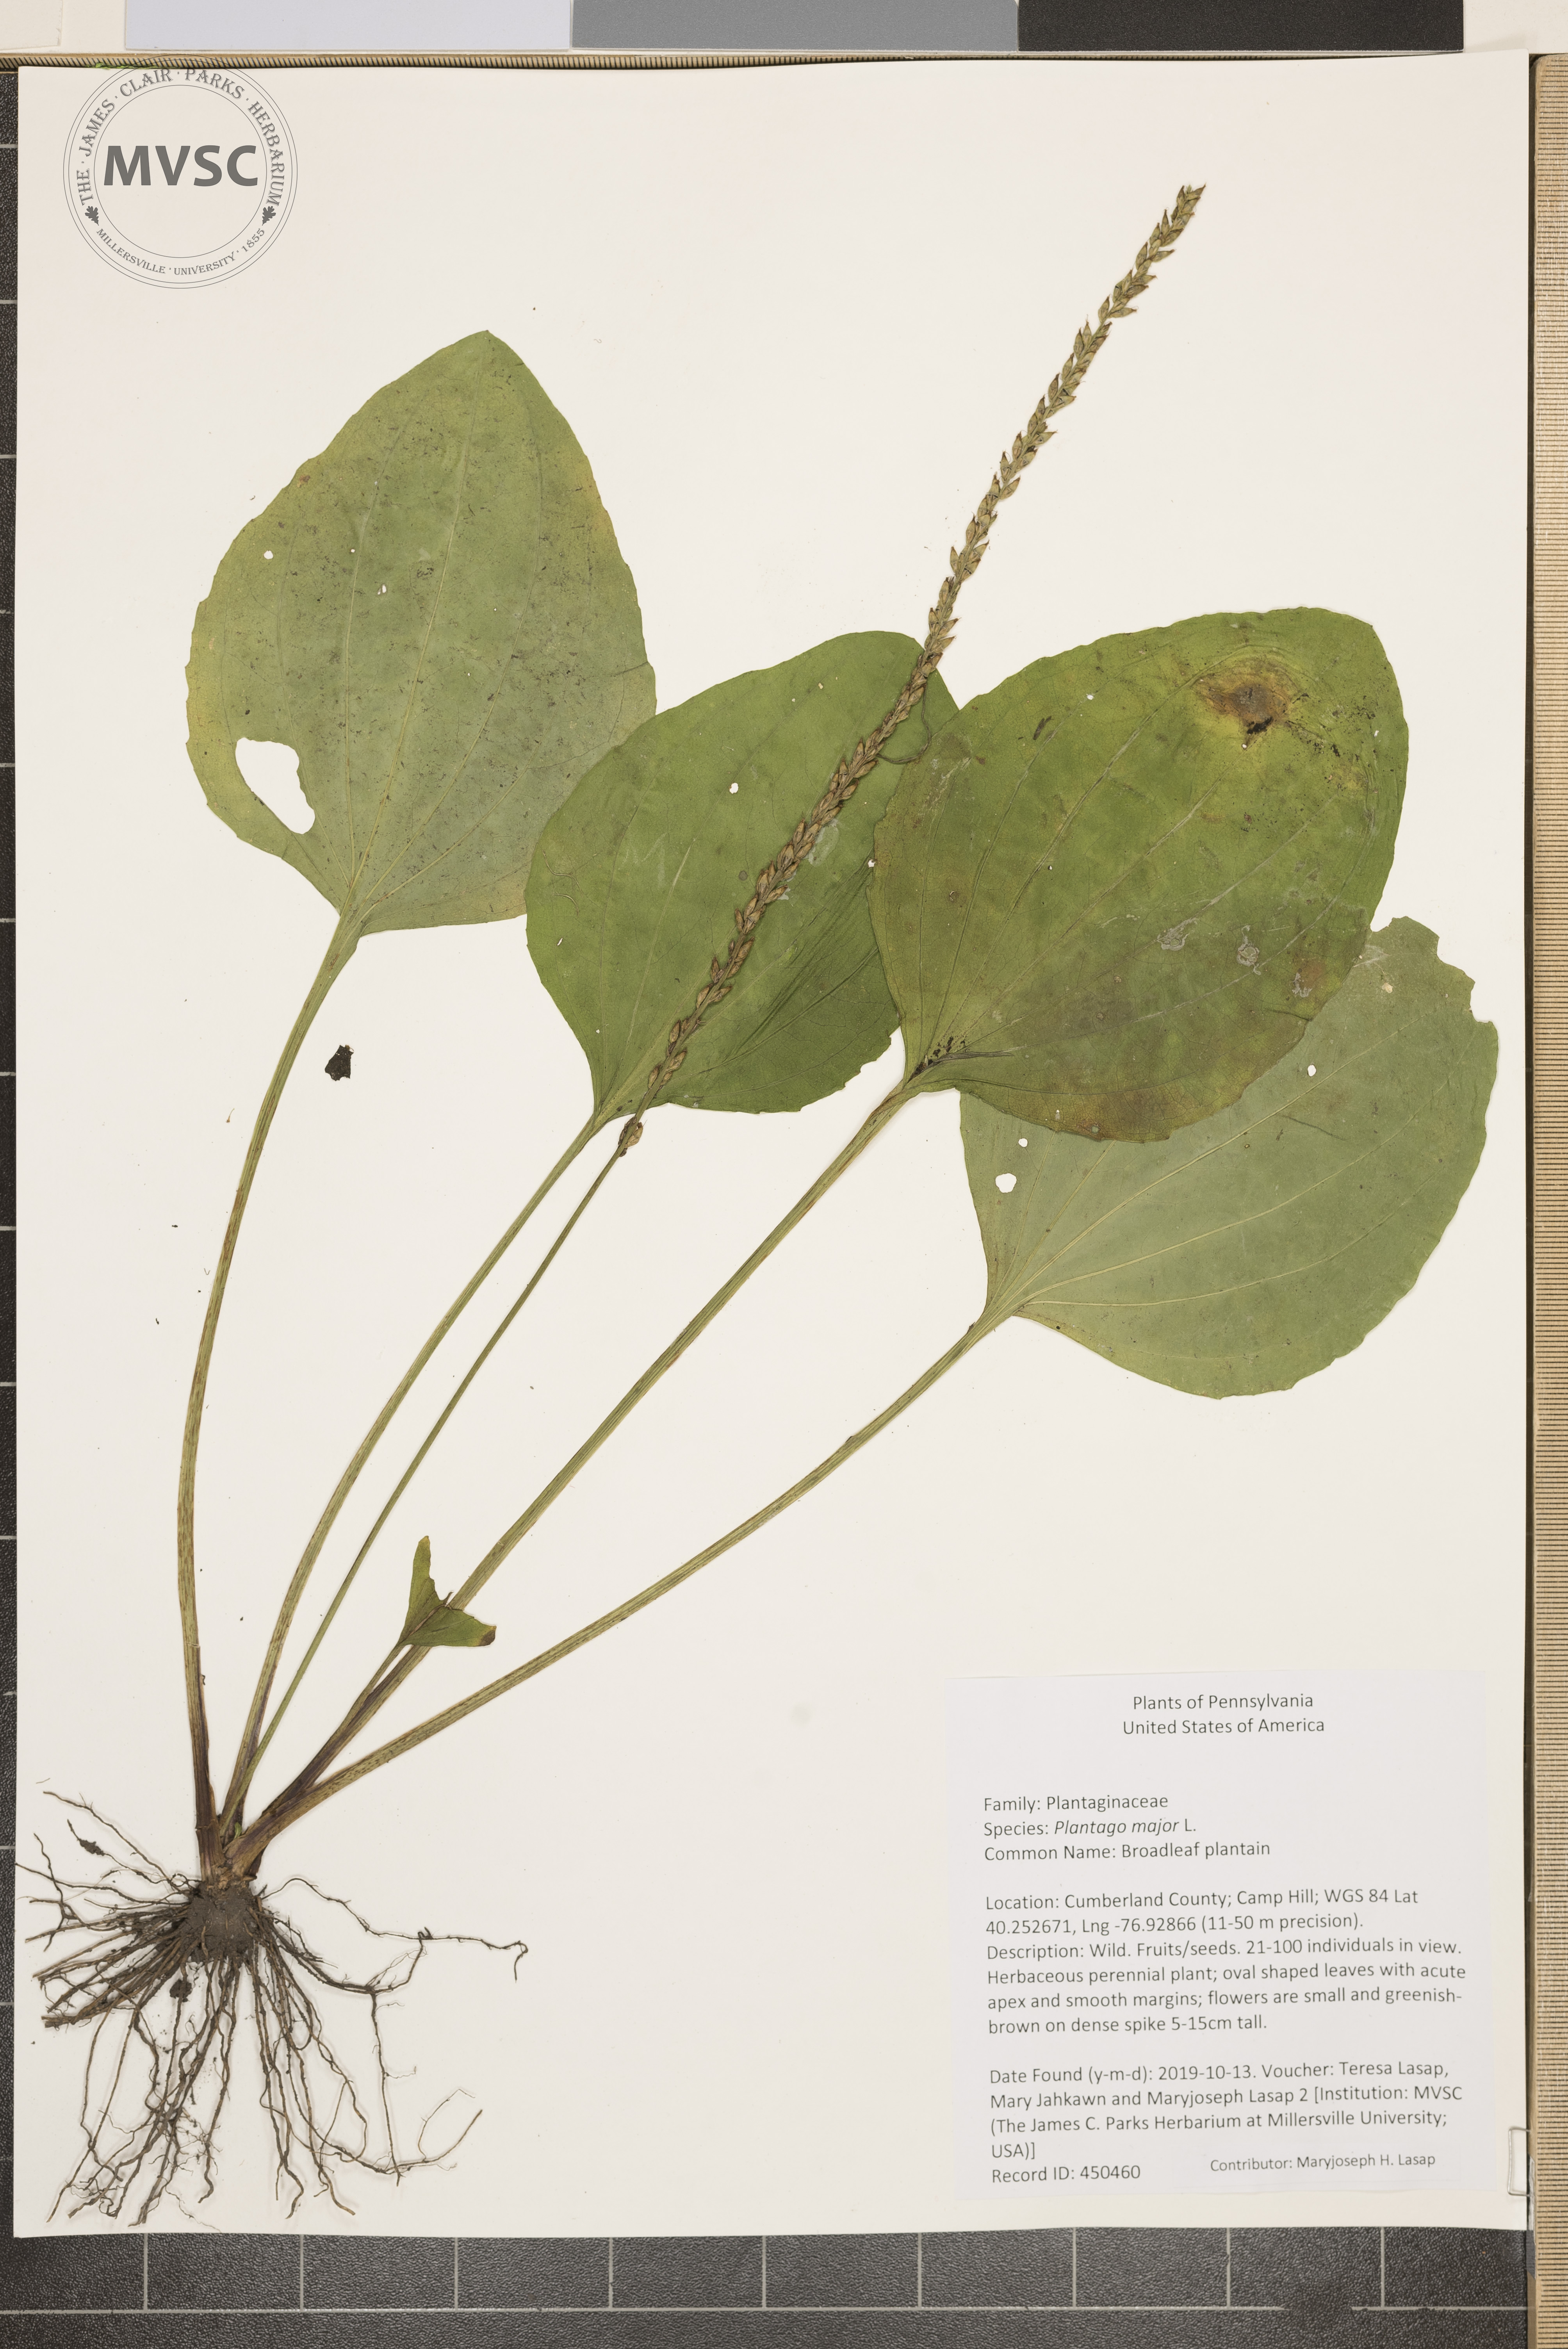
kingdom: Plantae
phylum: Tracheophyta
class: Magnoliopsida
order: Lamiales
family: Plantaginaceae
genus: Plantago
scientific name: Plantago major
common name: Broadleaf plantain
